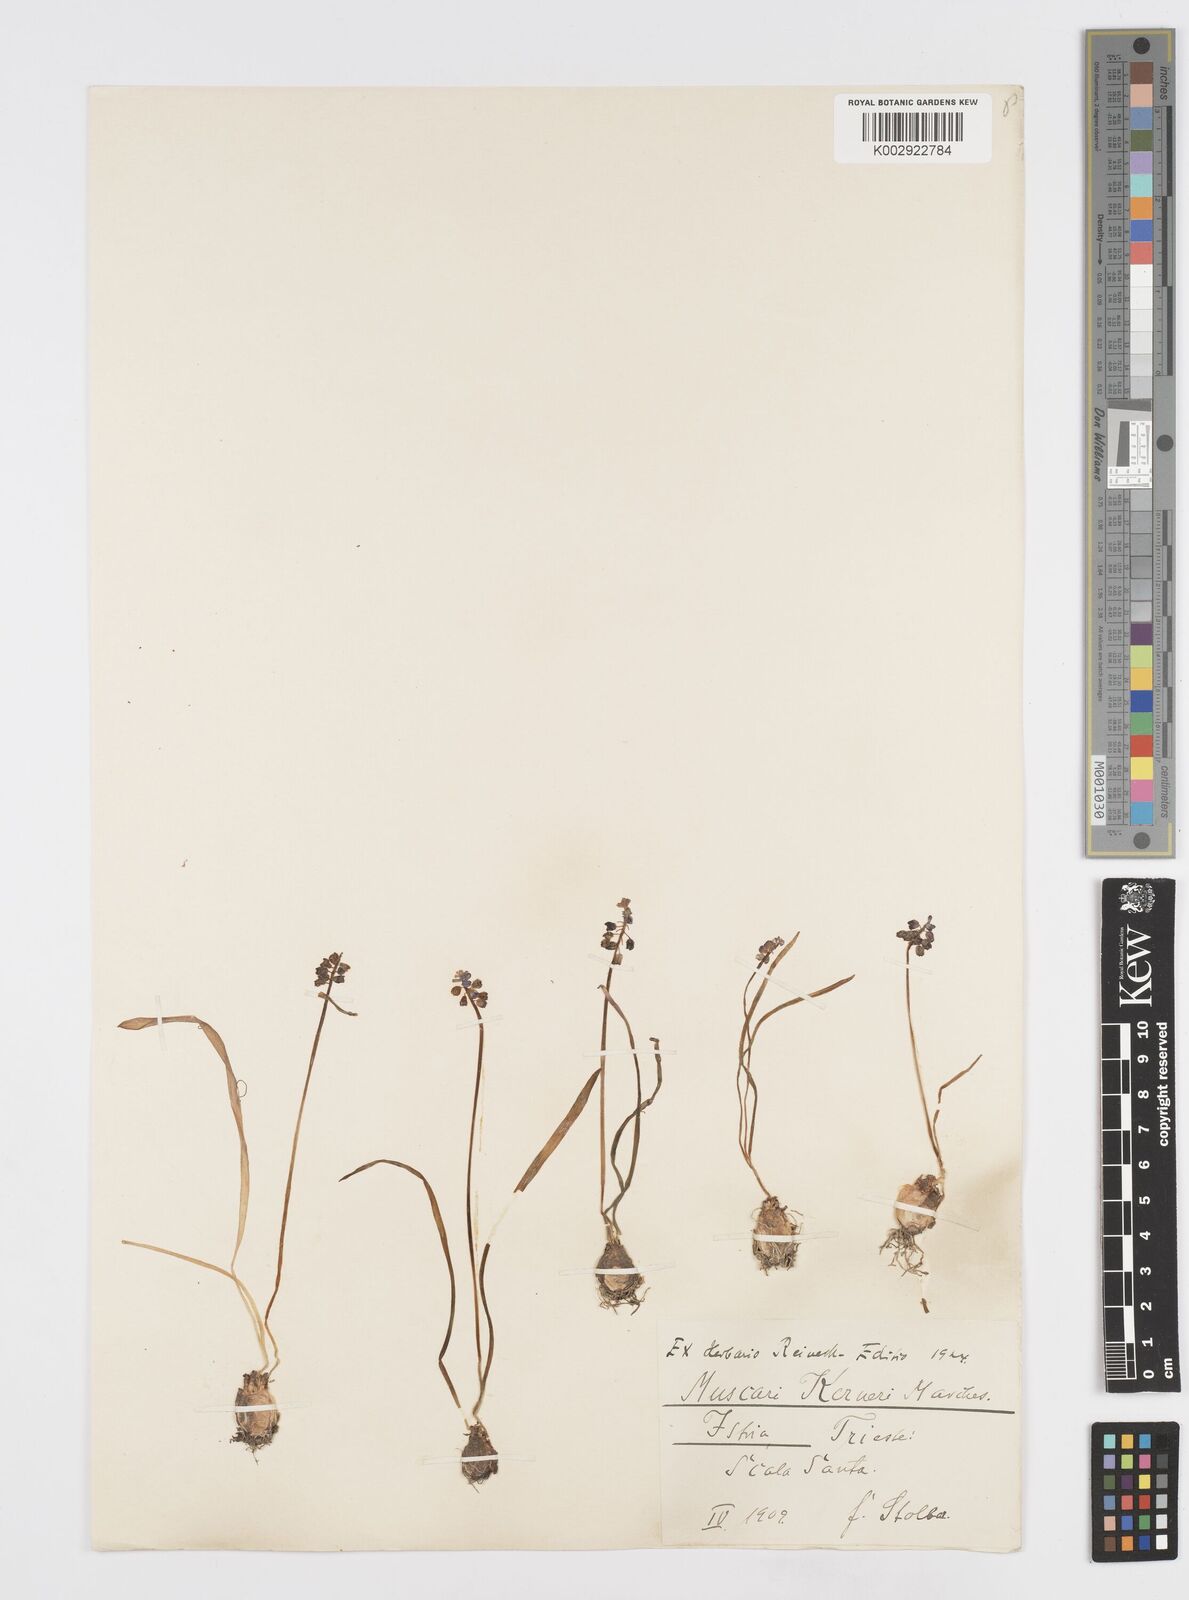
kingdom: Plantae
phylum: Tracheophyta
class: Liliopsida
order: Asparagales
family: Asparagaceae
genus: Muscari
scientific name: Muscari
